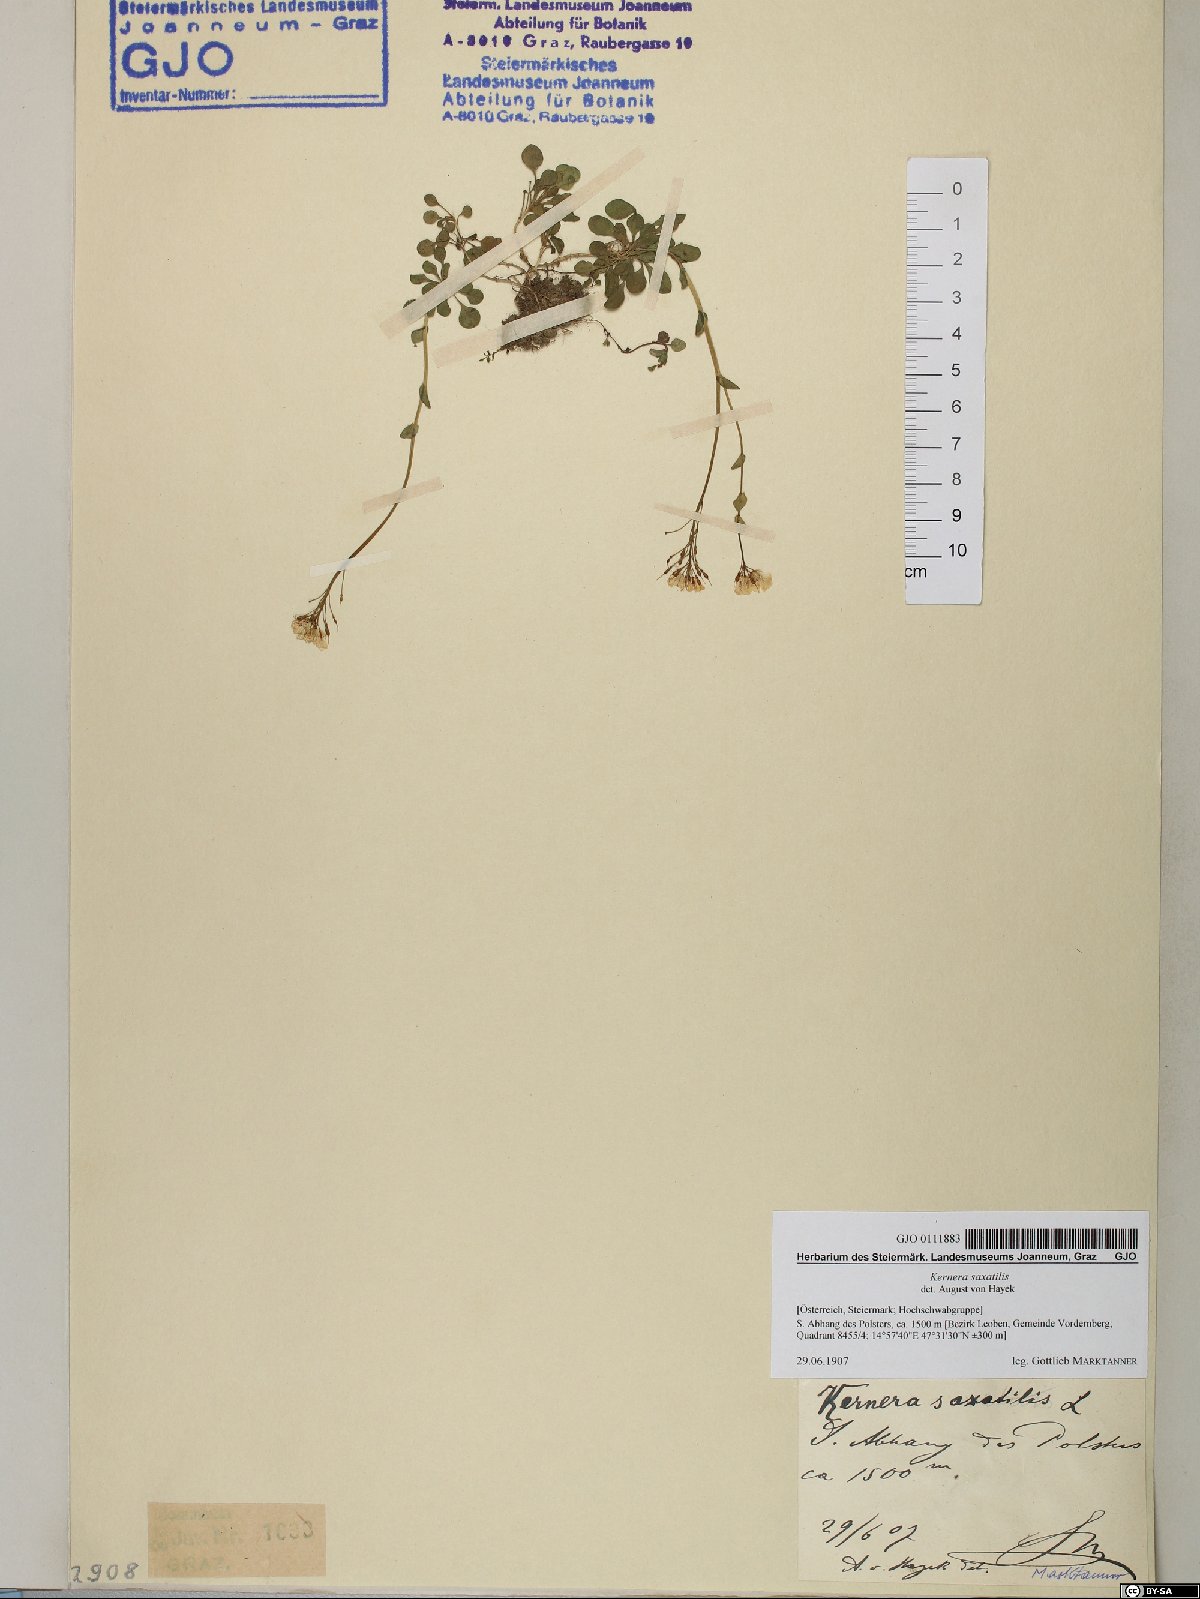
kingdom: Plantae
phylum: Tracheophyta
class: Magnoliopsida
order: Brassicales
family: Brassicaceae
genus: Kernera
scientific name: Kernera saxatilis
